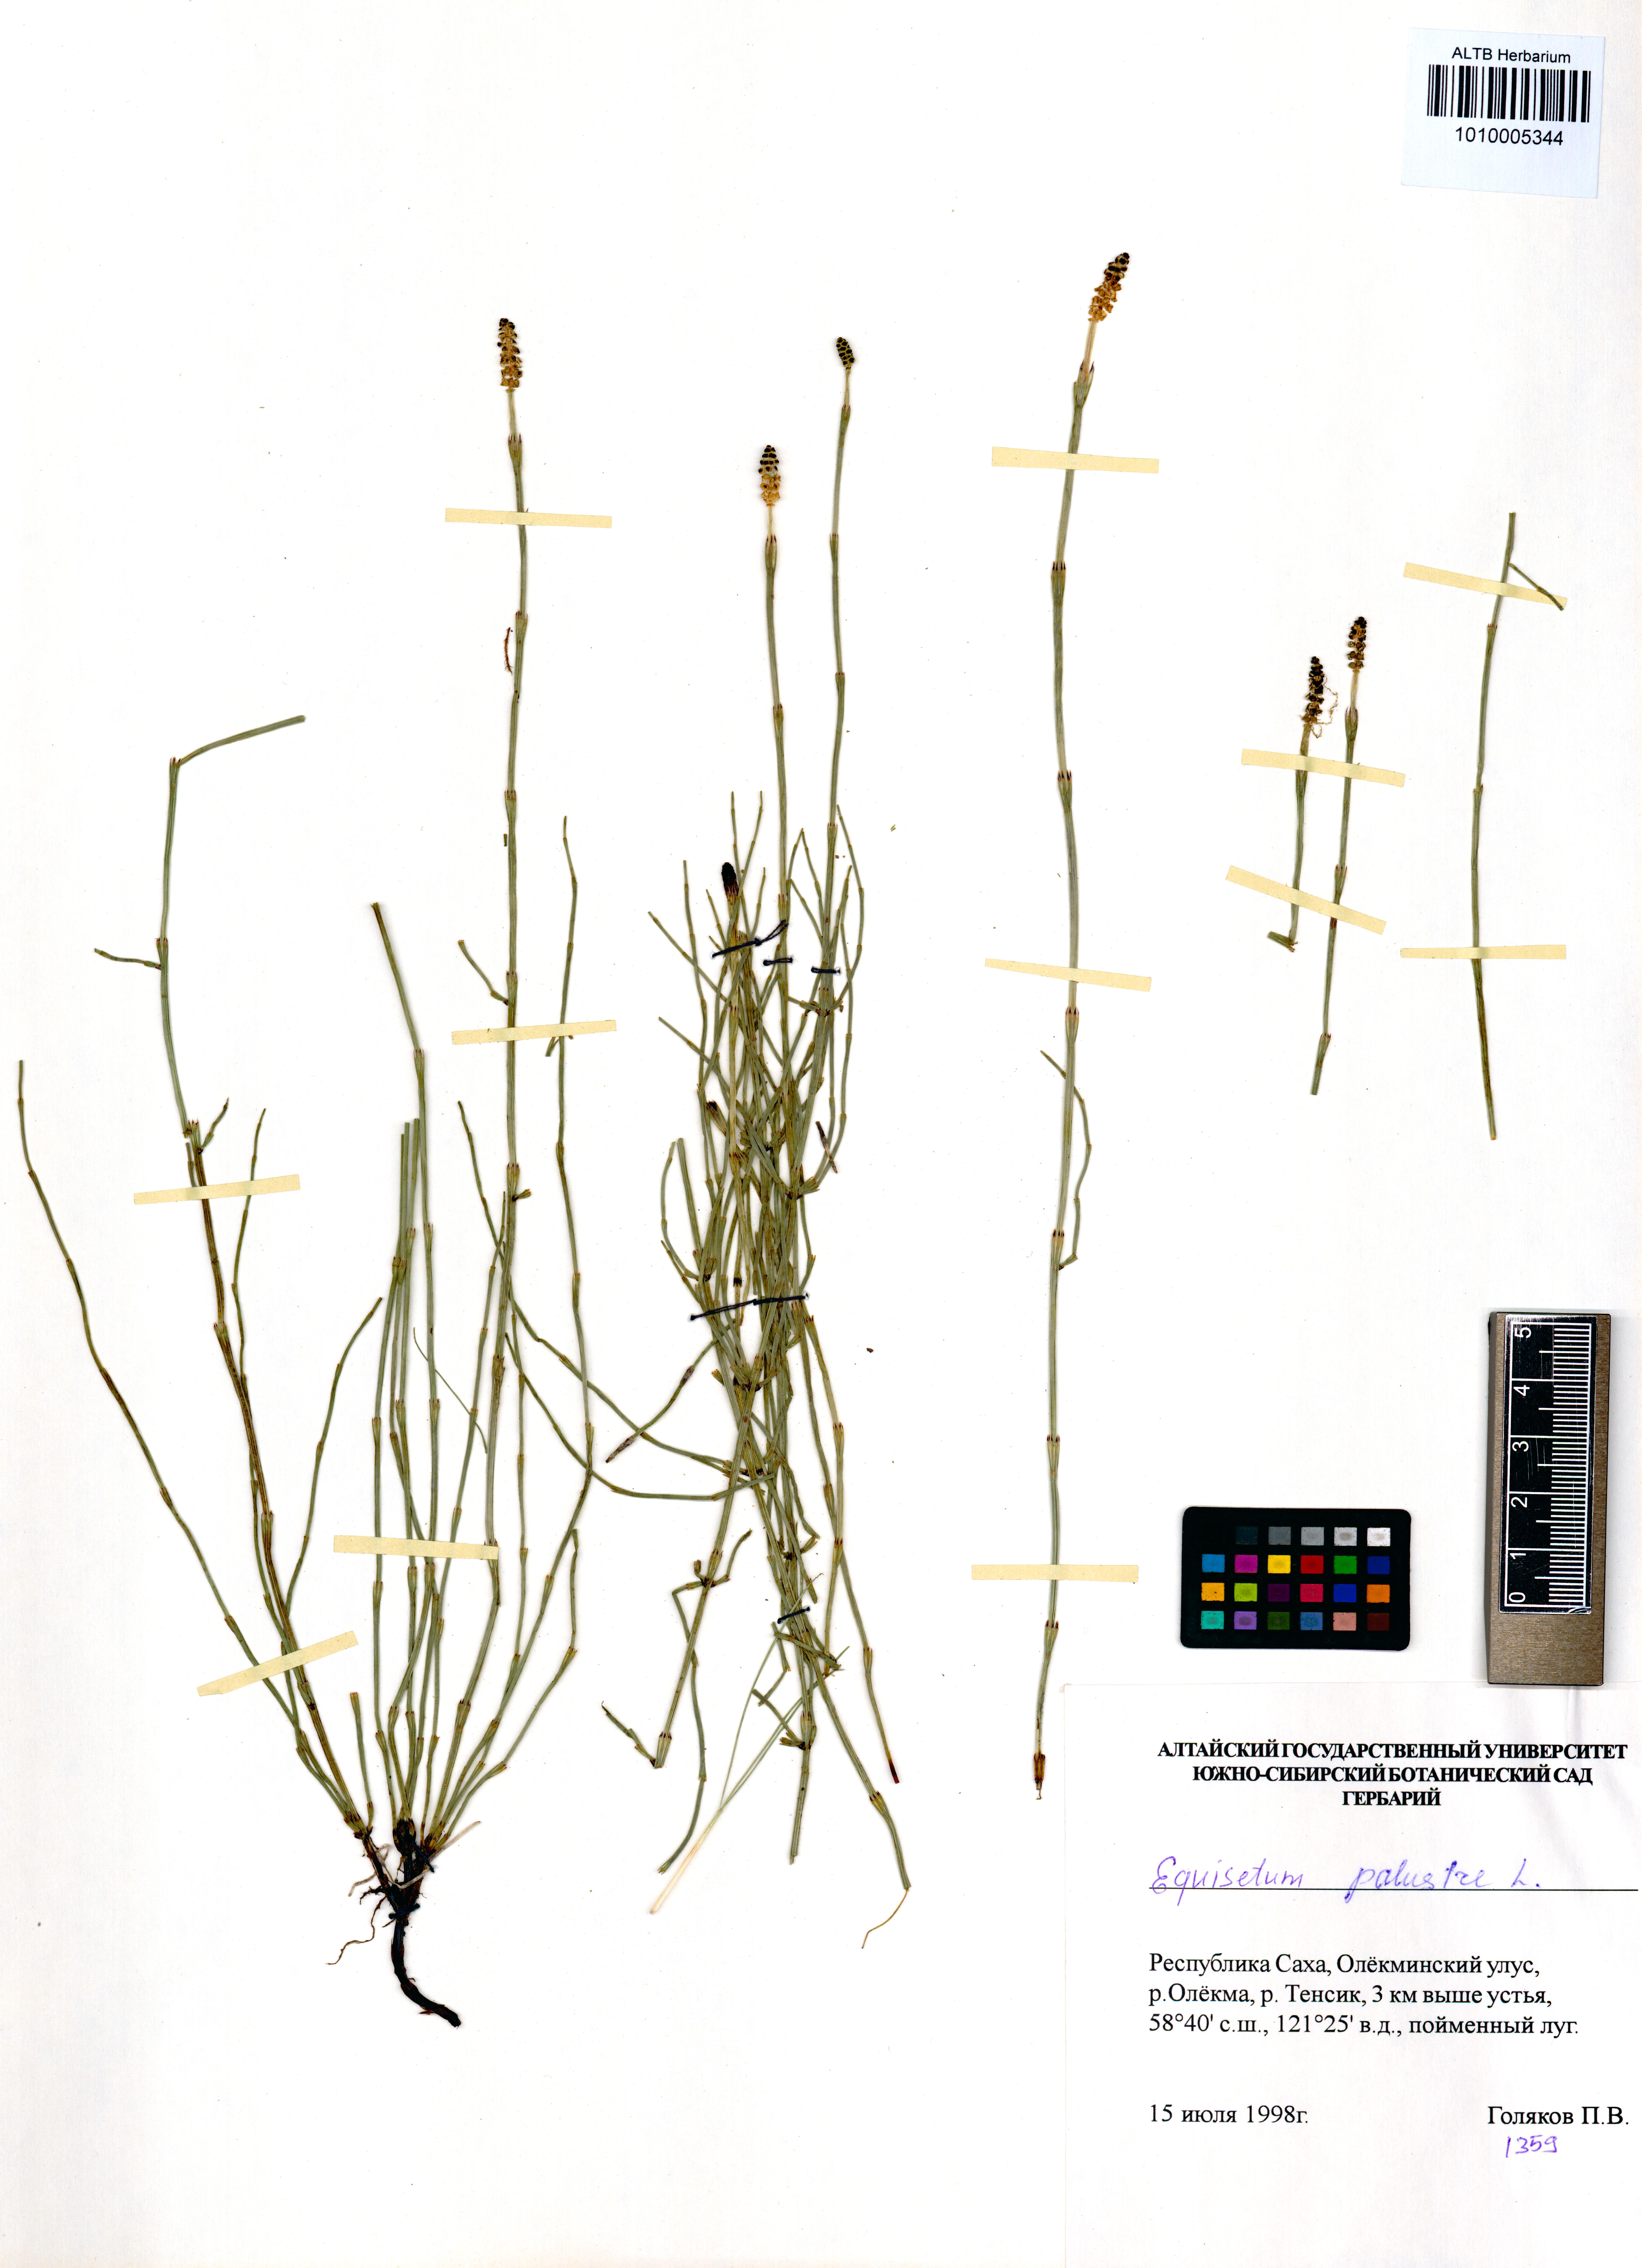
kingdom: Plantae
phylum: Tracheophyta
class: Polypodiopsida
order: Equisetales
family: Equisetaceae
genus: Equisetum
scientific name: Equisetum palustre
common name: Marsh horsetail
